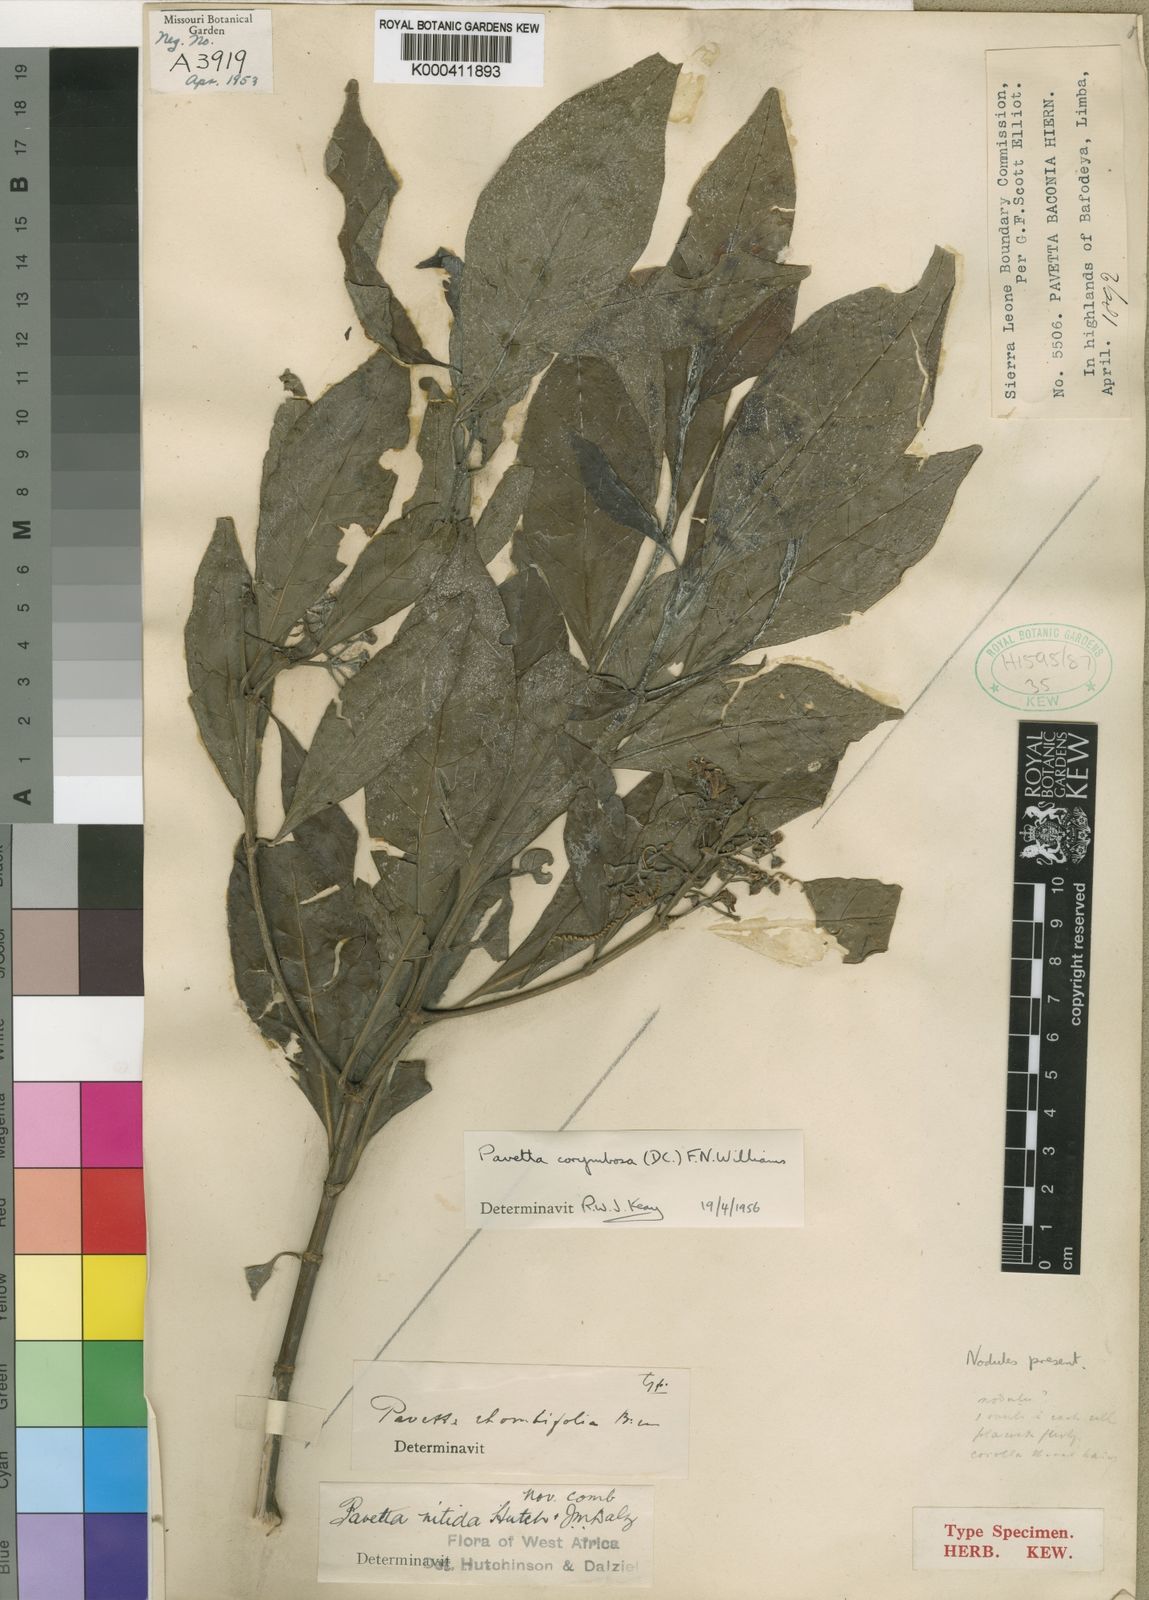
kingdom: Plantae
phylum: Tracheophyta
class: Magnoliopsida
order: Gentianales
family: Rubiaceae
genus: Pavetta
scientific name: Pavetta corymbosa
